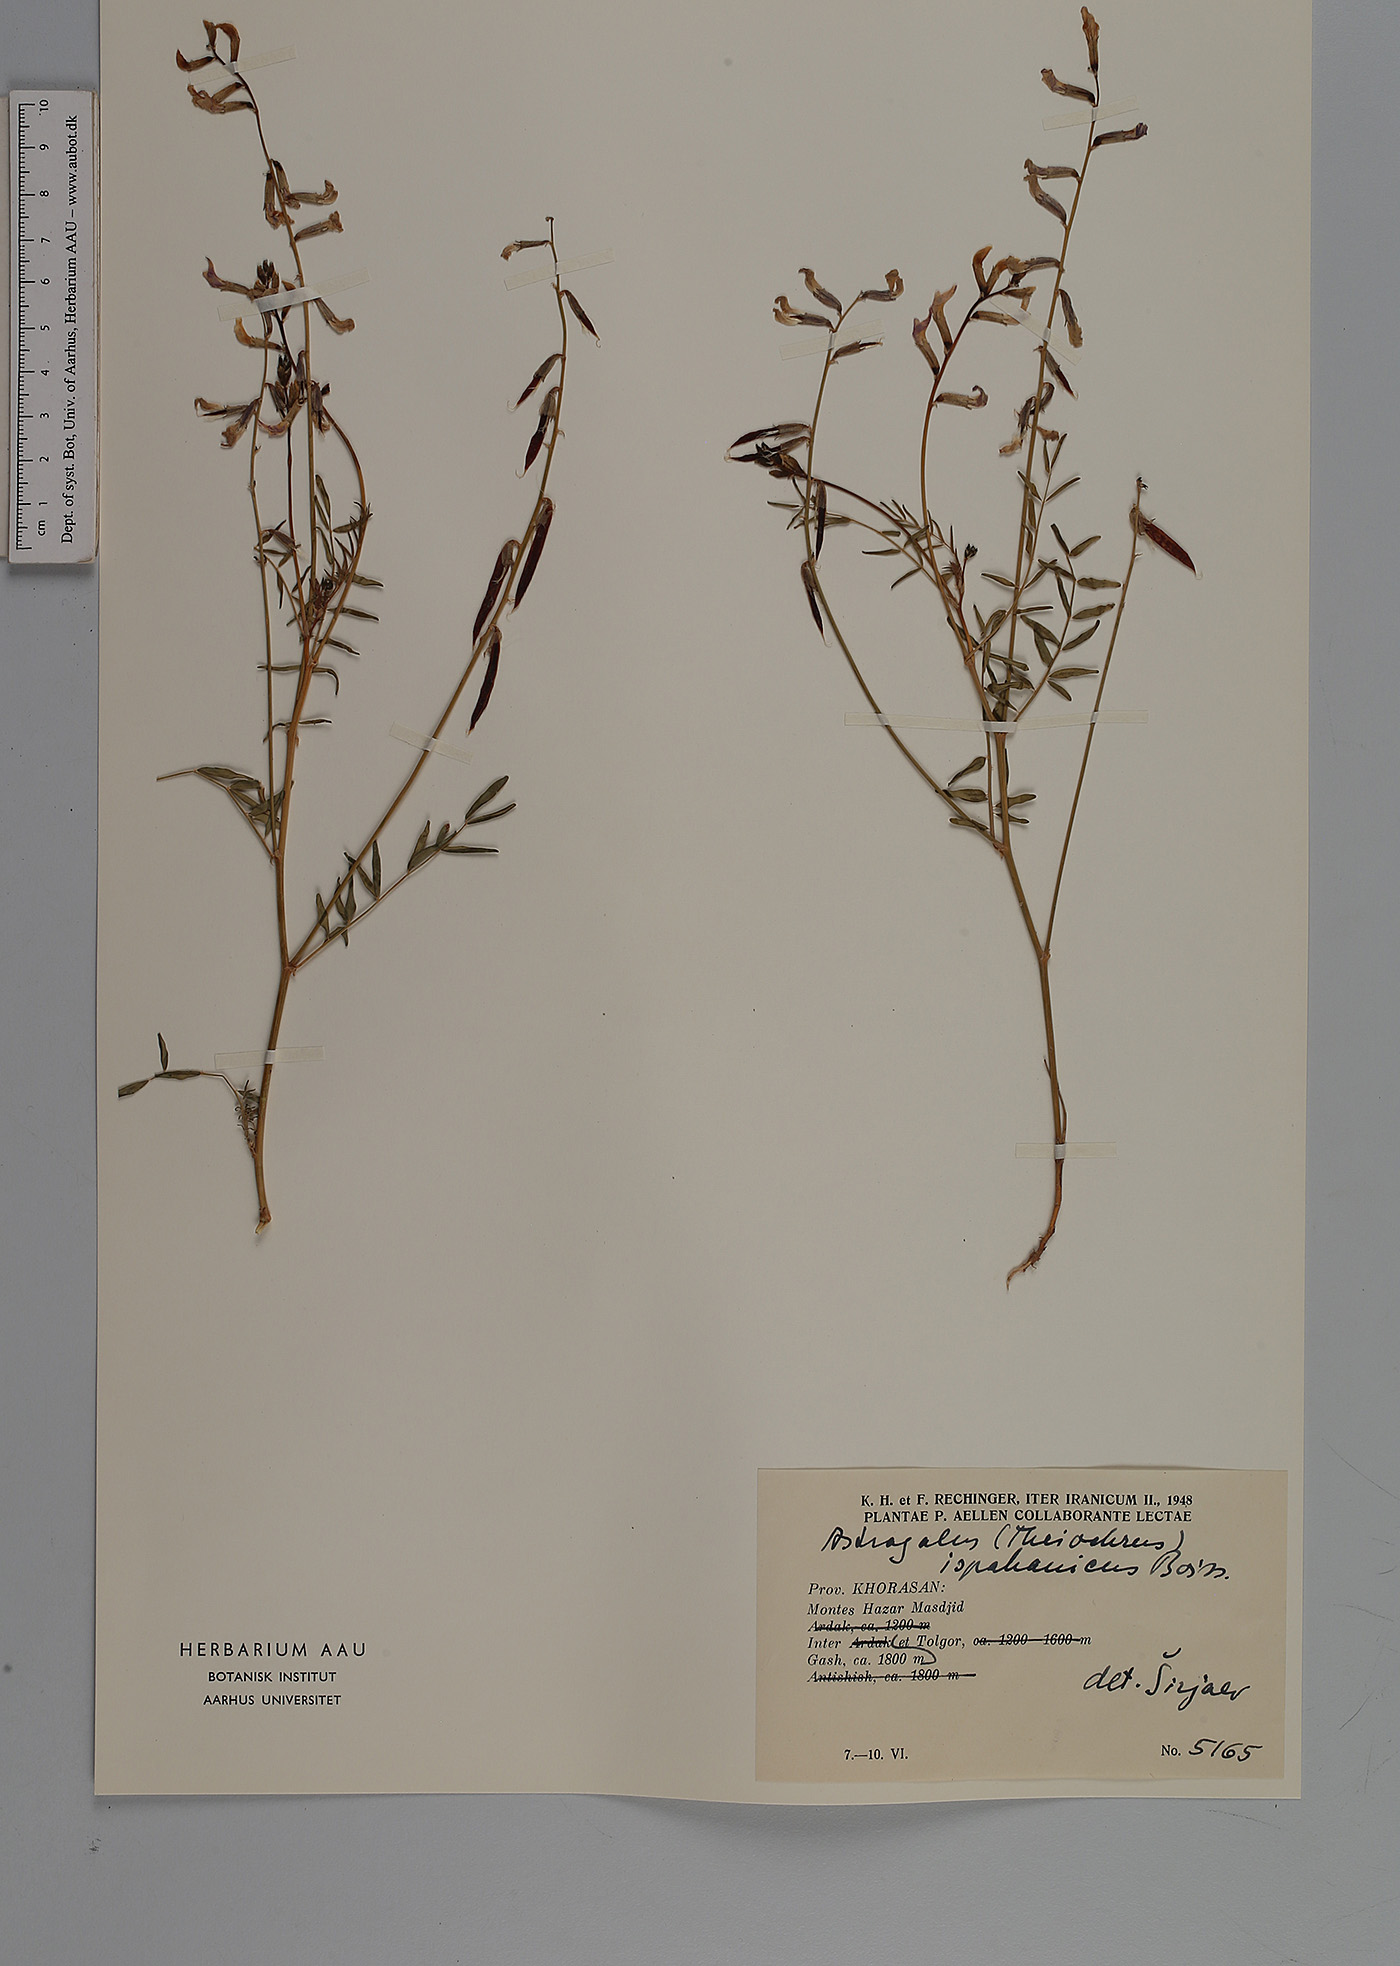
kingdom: Plantae
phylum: Tracheophyta
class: Magnoliopsida
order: Fabales
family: Fabaceae
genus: Astragalus
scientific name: Astragalus siliquosus
